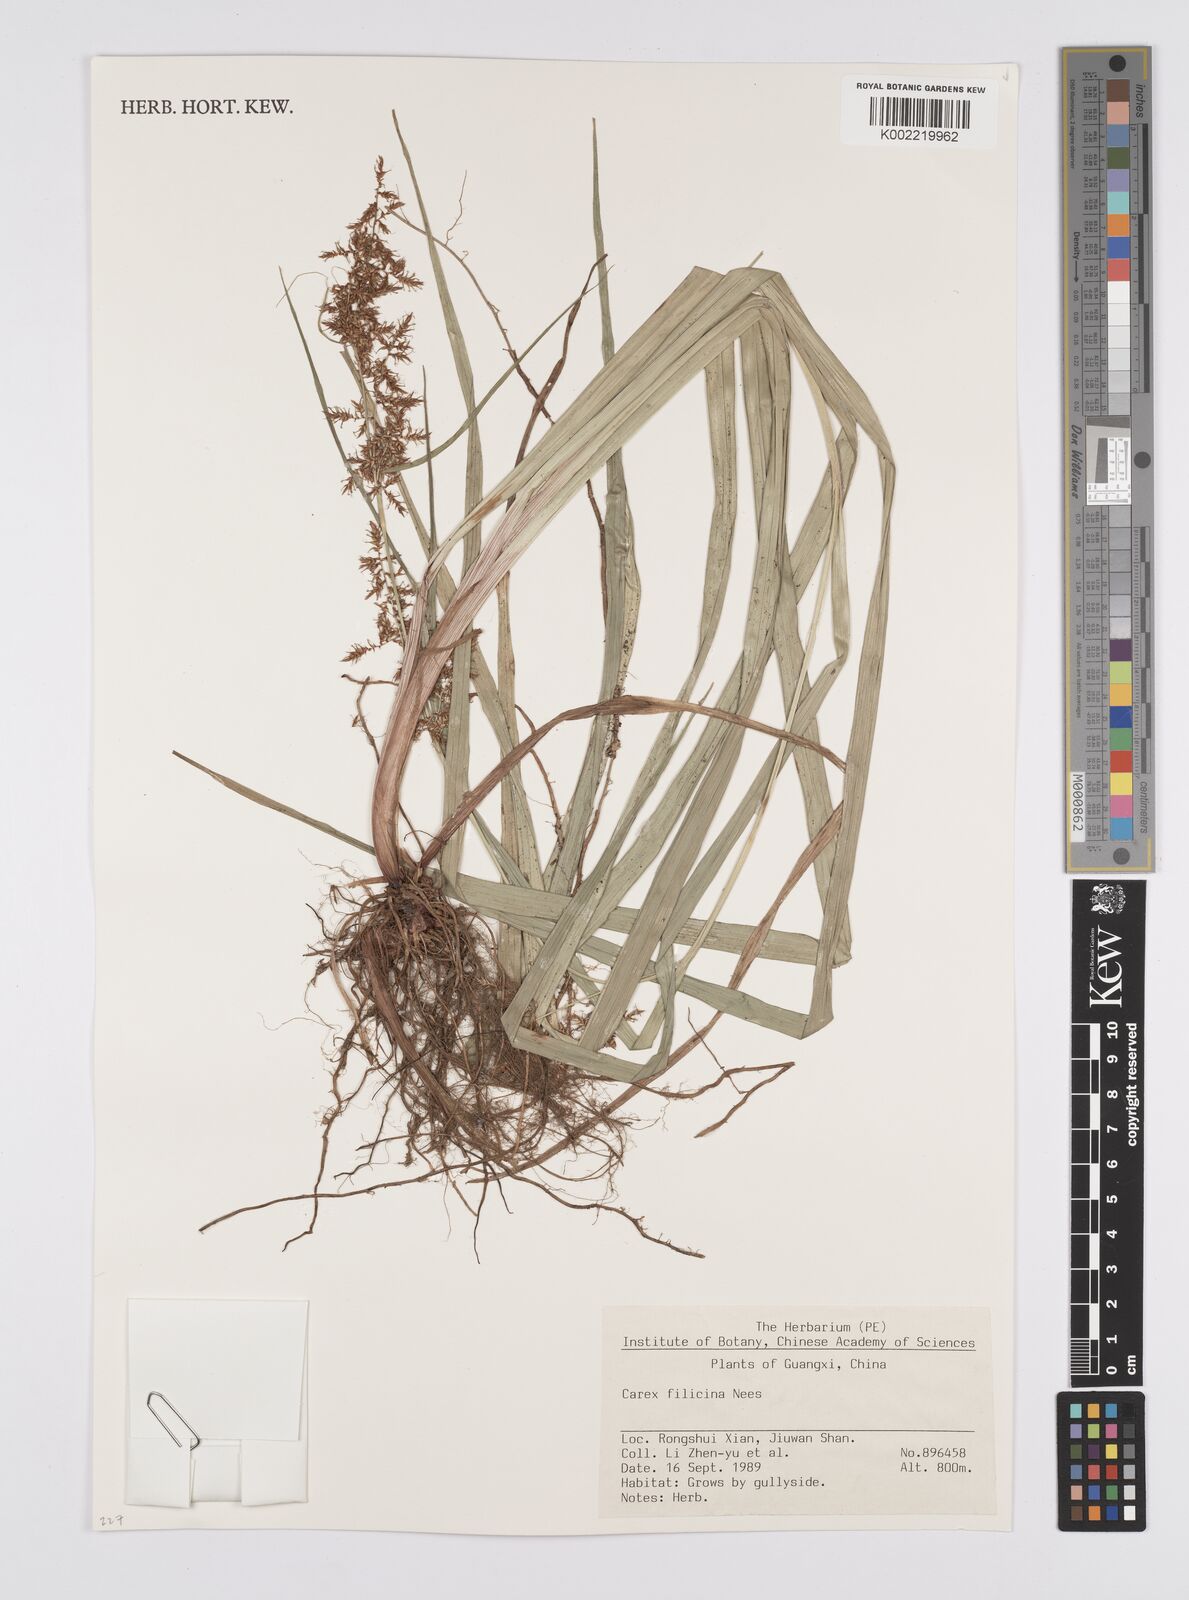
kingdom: Plantae
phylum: Tracheophyta
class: Liliopsida
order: Poales
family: Cyperaceae
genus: Carex
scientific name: Carex filicina
